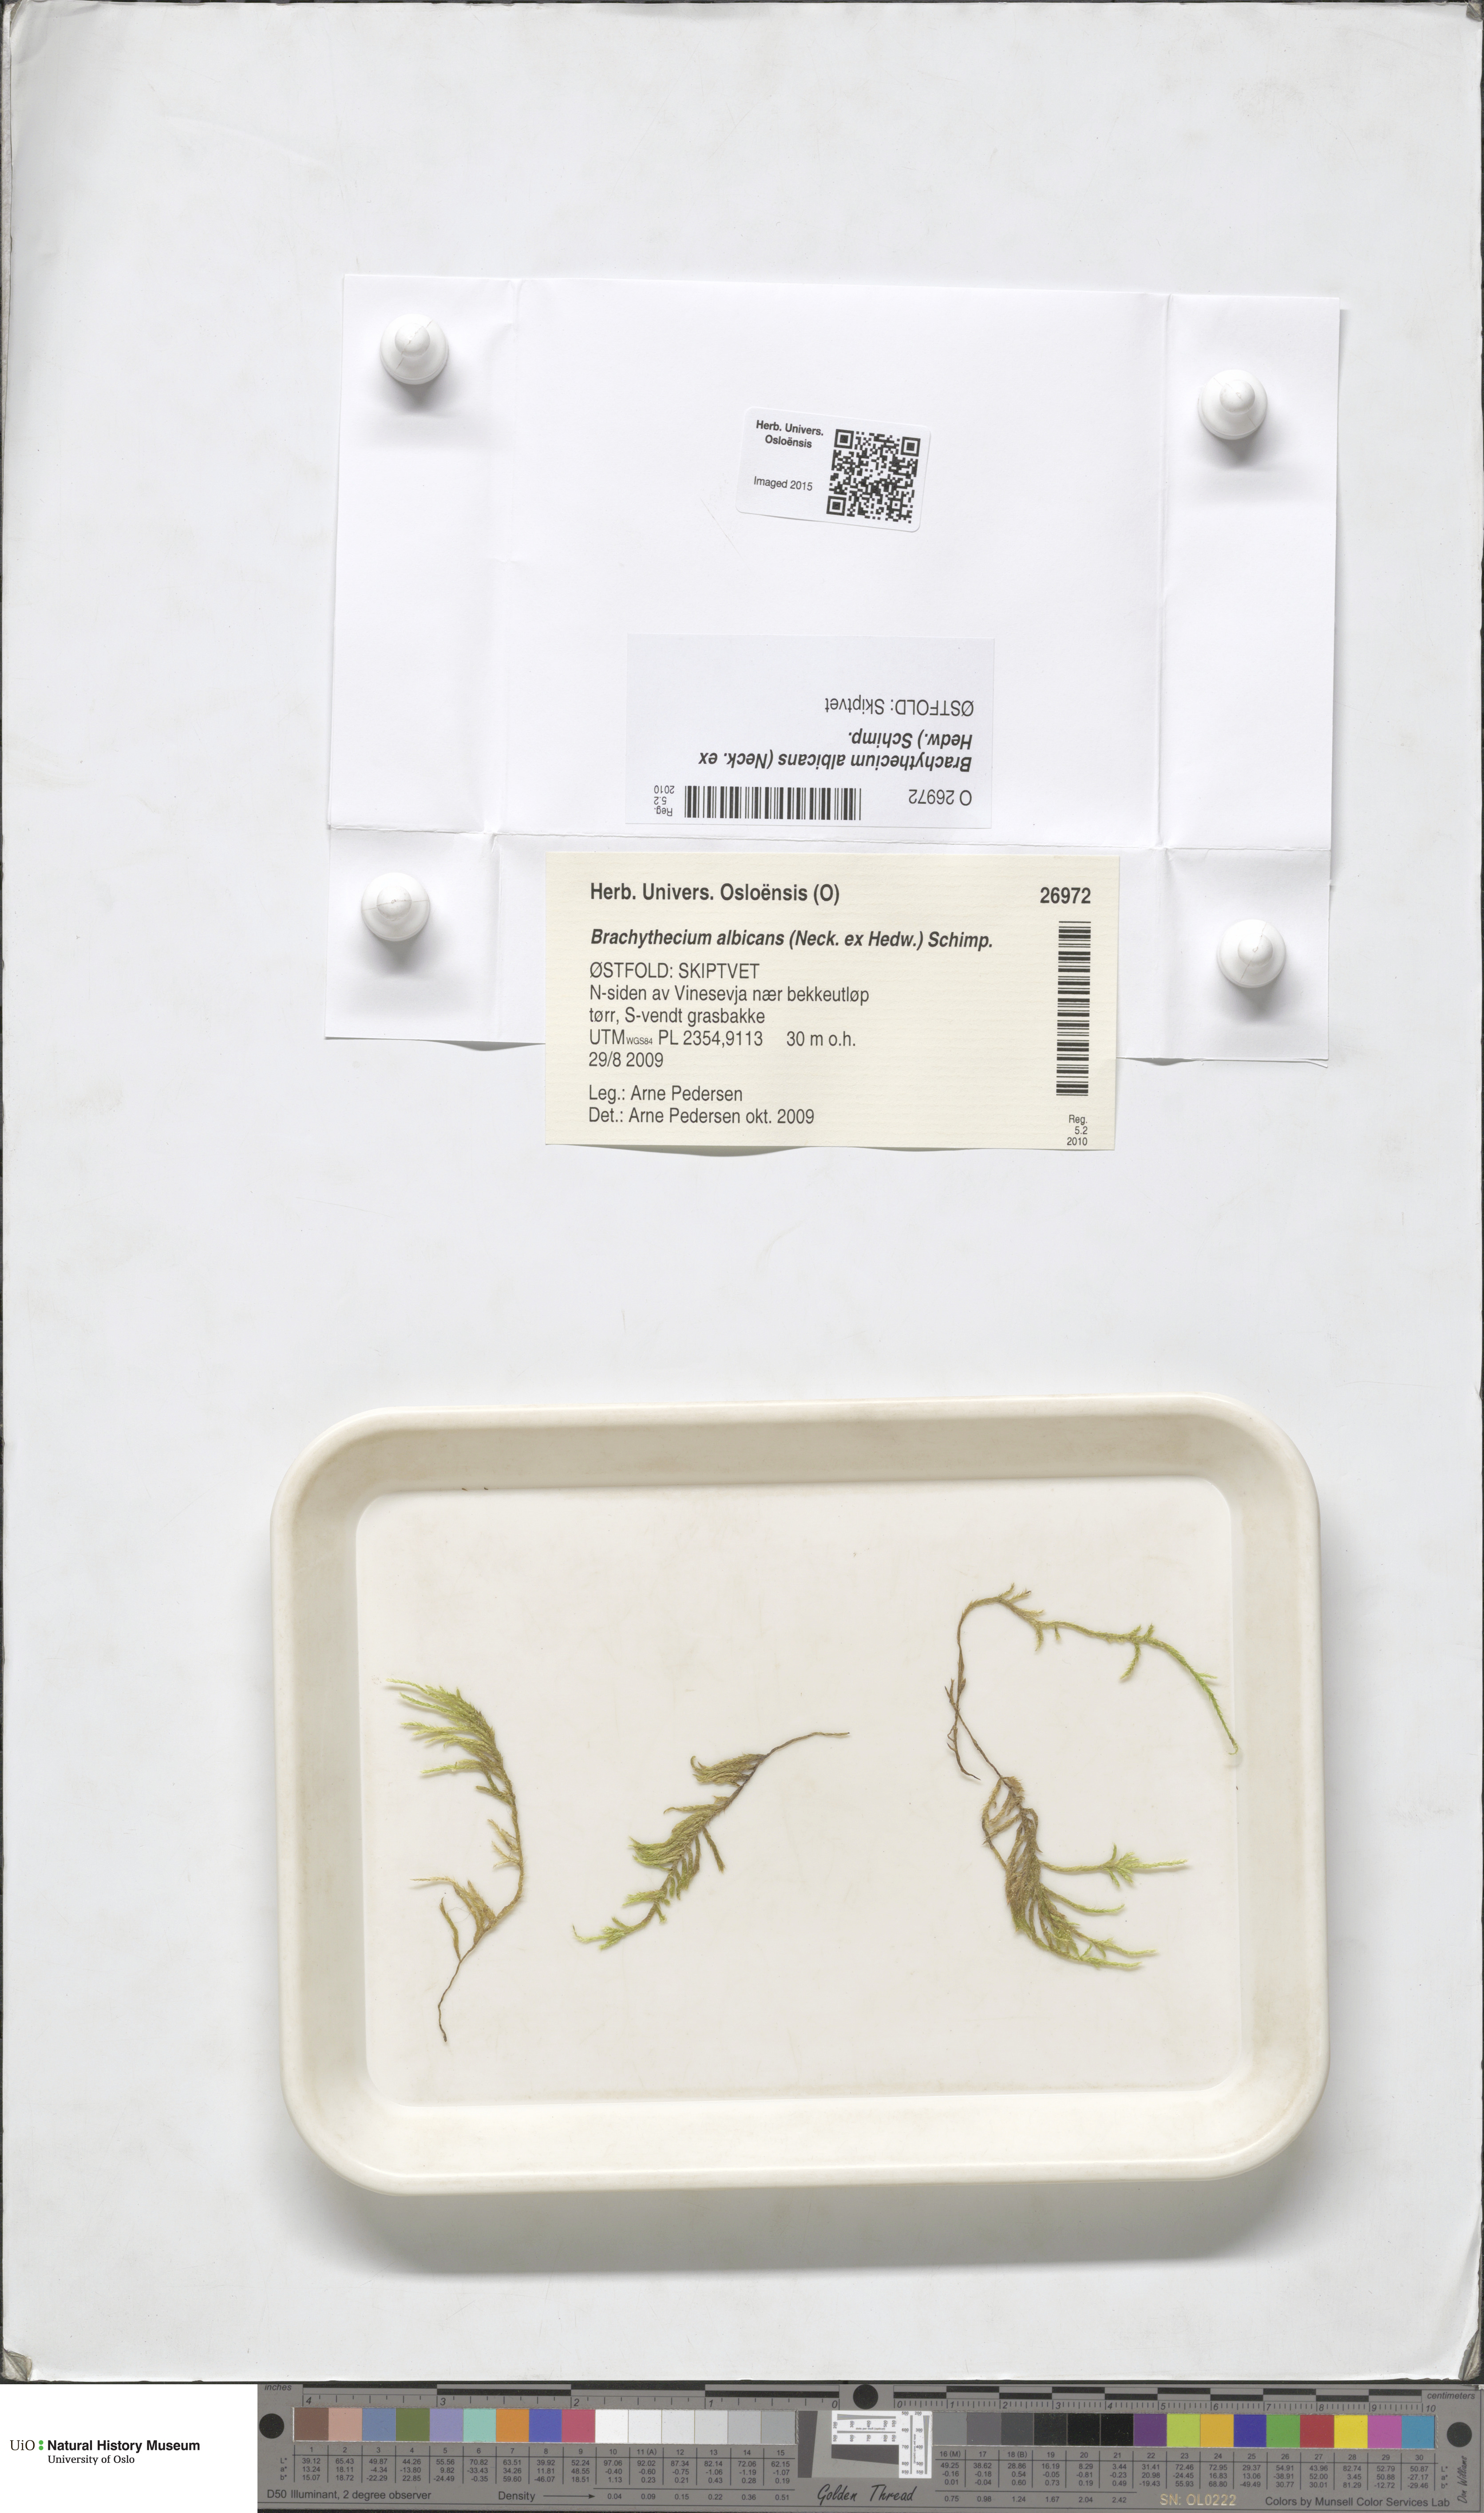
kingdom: Plantae
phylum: Bryophyta
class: Bryopsida
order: Hypnales
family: Brachytheciaceae
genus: Brachythecium
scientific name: Brachythecium albicans
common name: Whitish ragged moss
